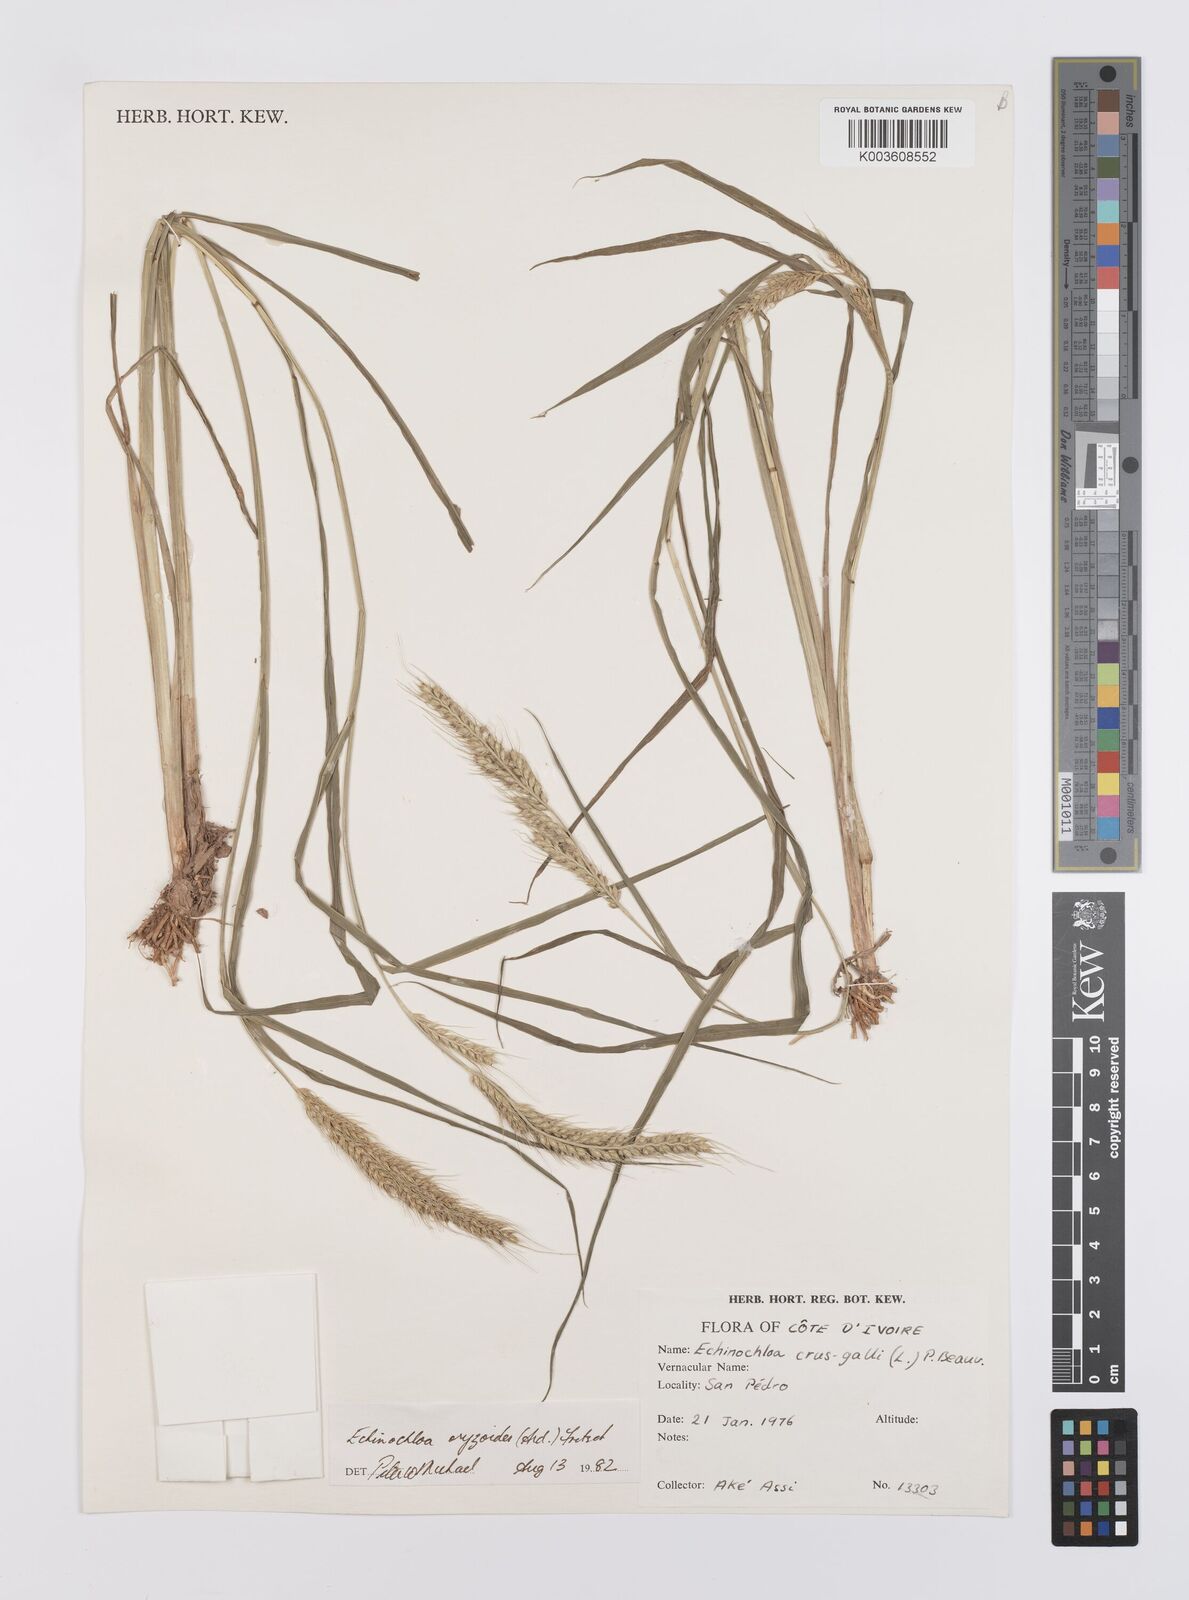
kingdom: Plantae
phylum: Tracheophyta
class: Liliopsida
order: Poales
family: Poaceae
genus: Echinochloa
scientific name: Echinochloa oryzoides
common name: Early water grass
